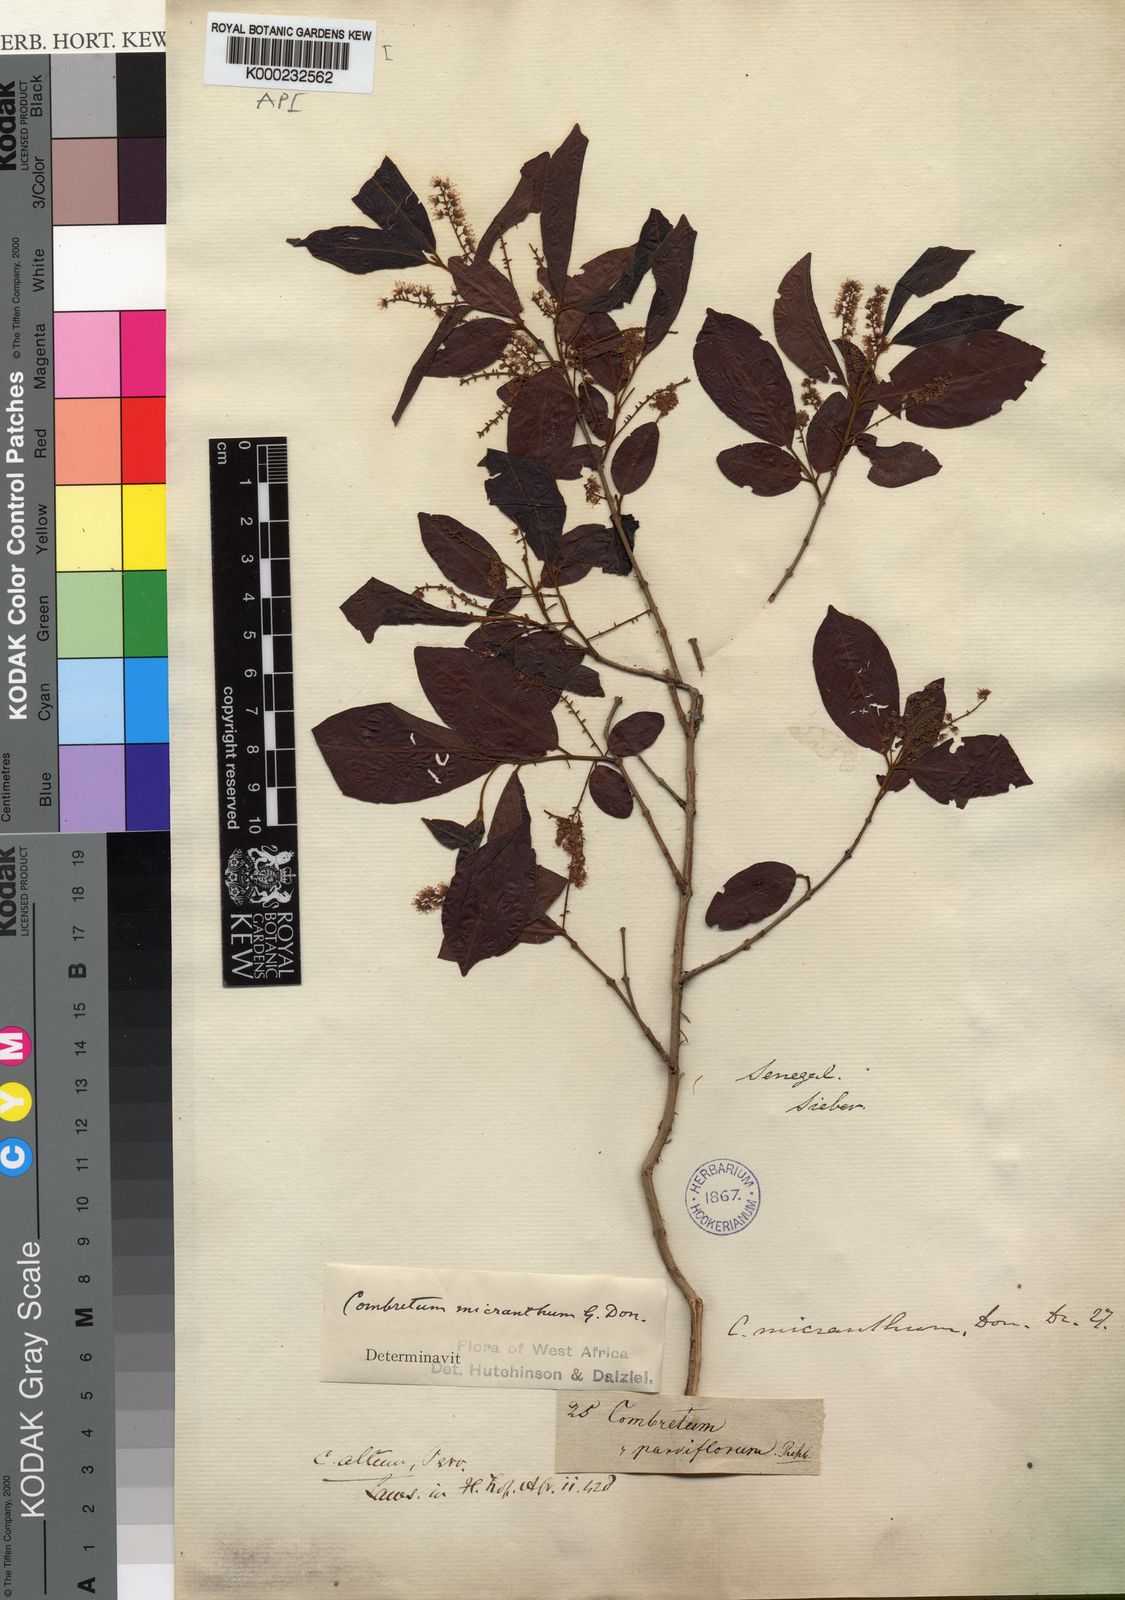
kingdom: Plantae
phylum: Tracheophyta
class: Magnoliopsida
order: Myrtales
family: Combretaceae
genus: Combretum
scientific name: Combretum micranthum
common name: Opium-antidote
